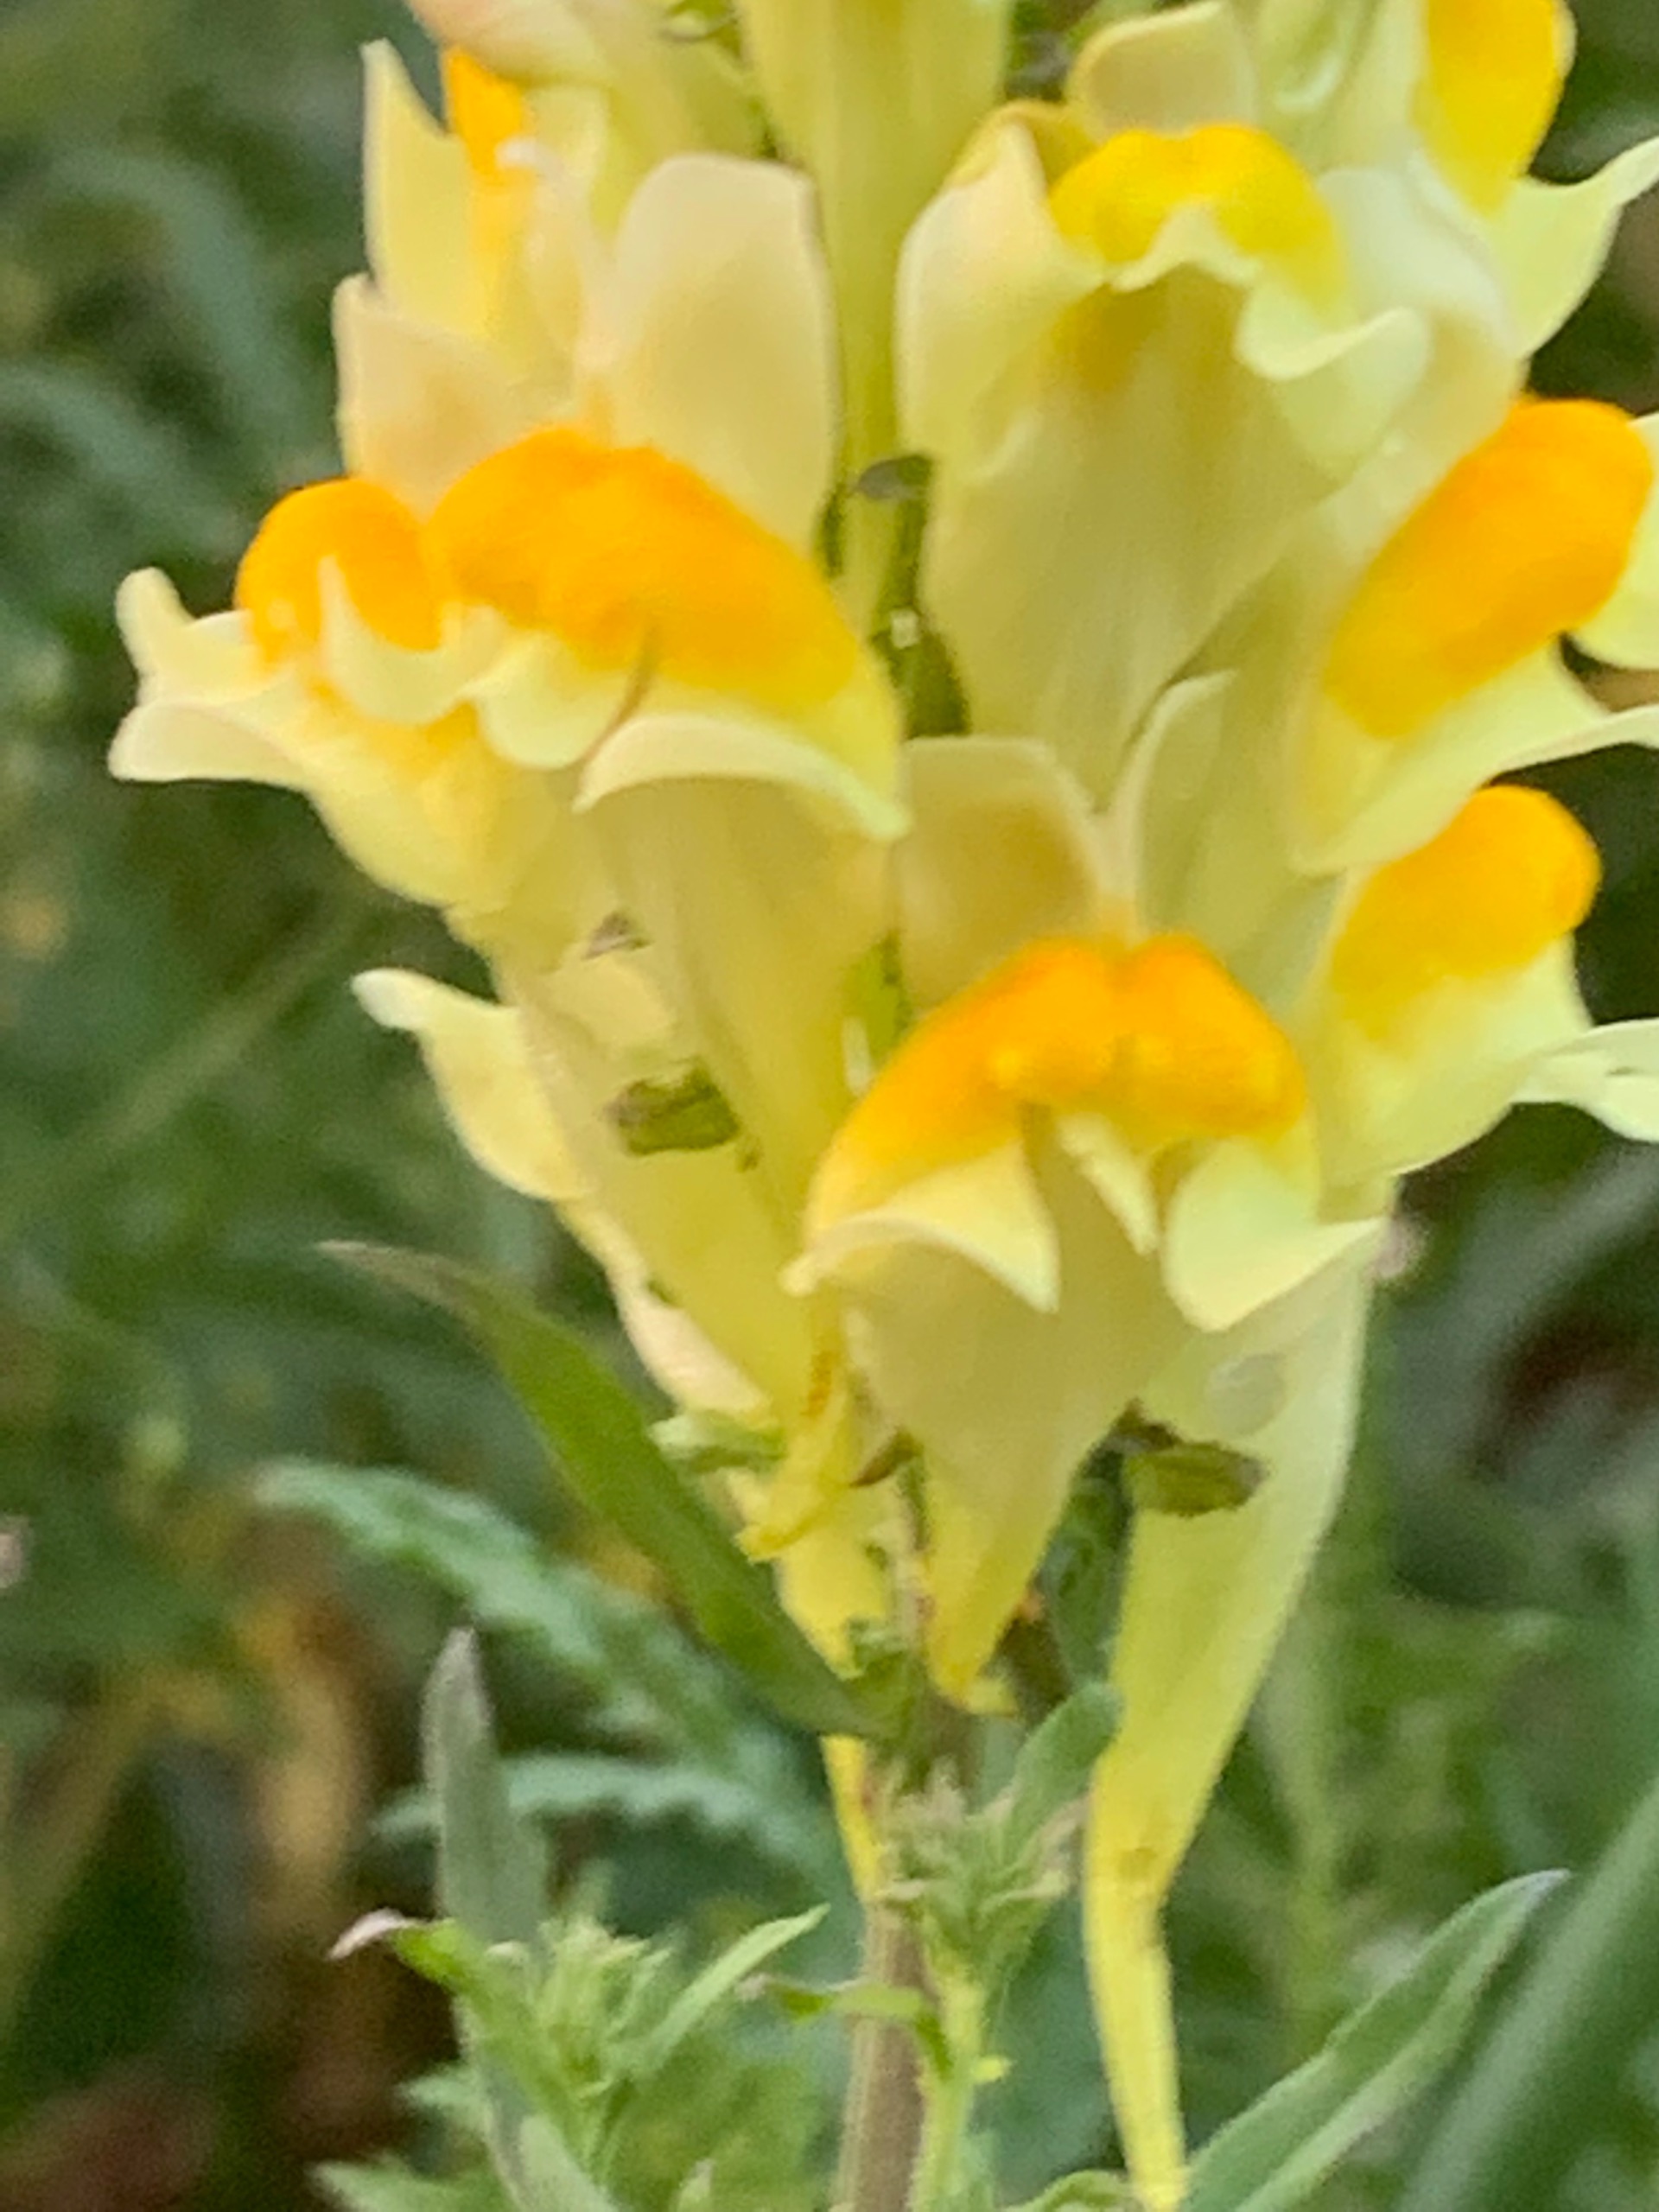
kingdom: Plantae
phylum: Tracheophyta
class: Magnoliopsida
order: Lamiales
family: Plantaginaceae
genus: Linaria
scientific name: Linaria vulgaris
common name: Almindelig torskemund
